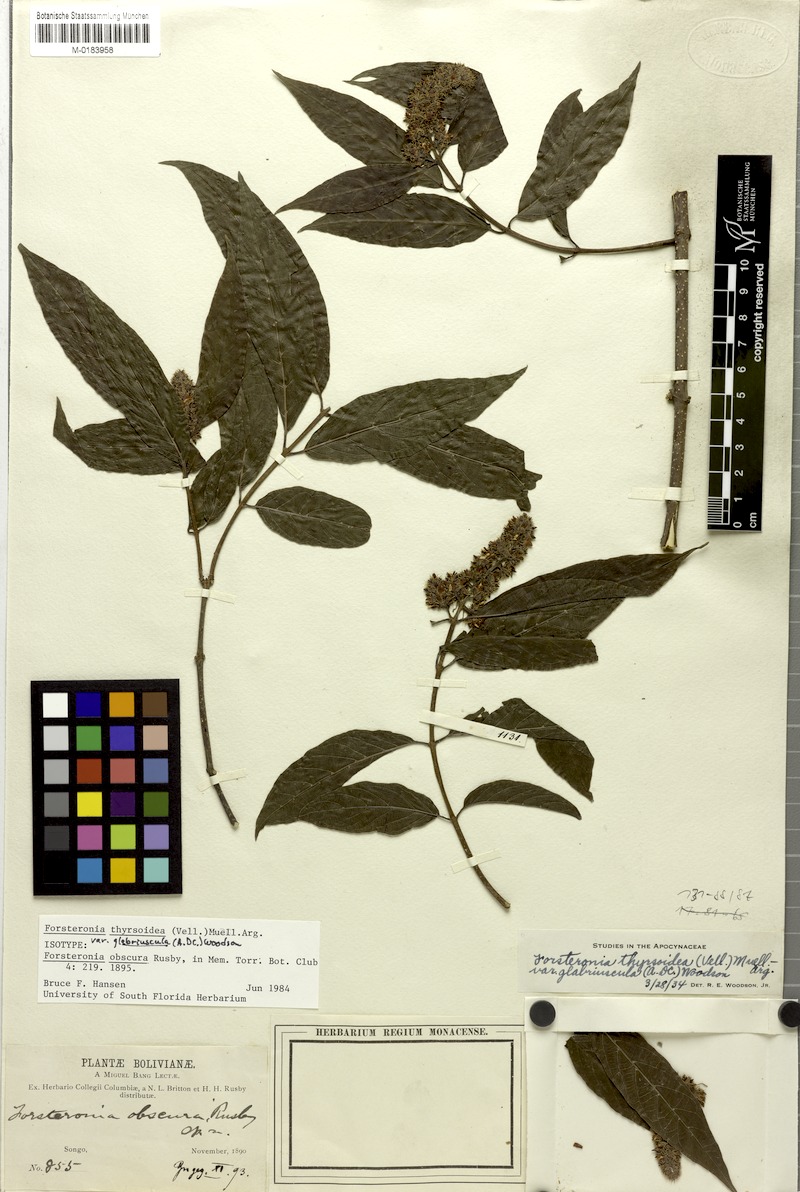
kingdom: Plantae
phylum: Tracheophyta
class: Magnoliopsida
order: Gentianales
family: Apocynaceae
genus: Forsteronia
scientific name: Forsteronia thyrsoidea
